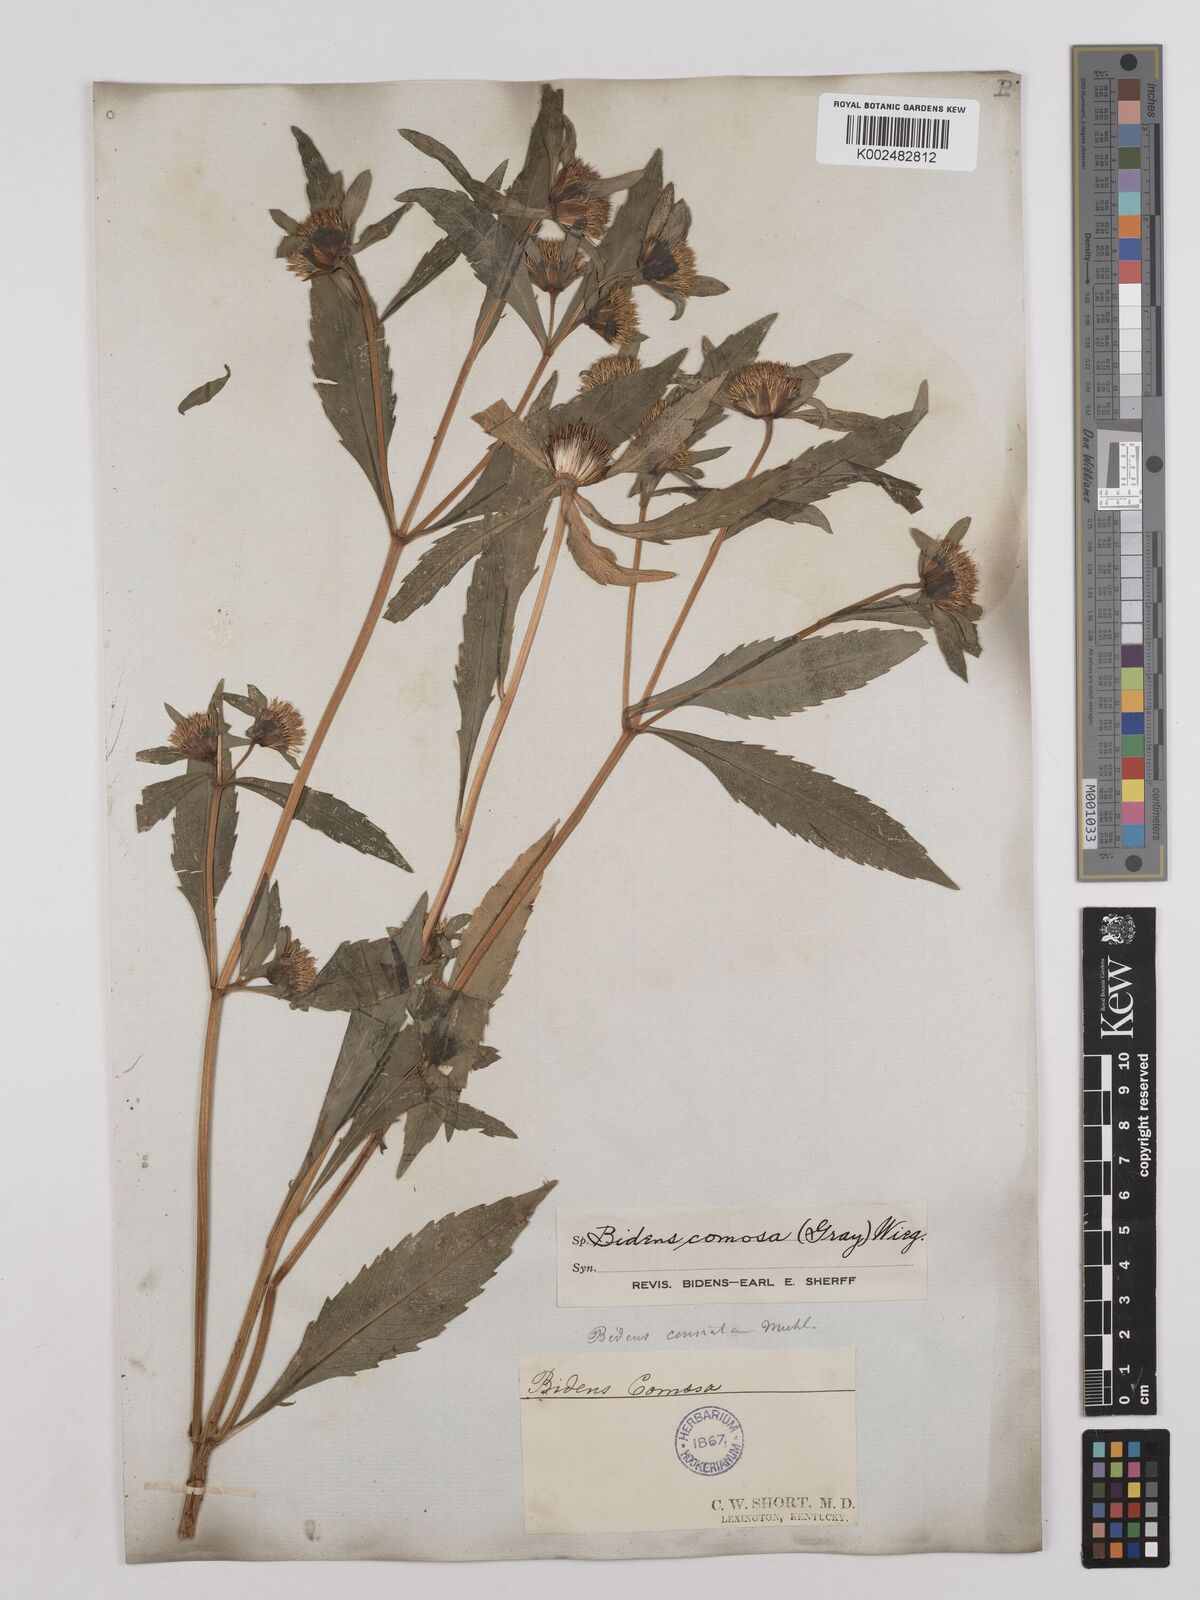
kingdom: Plantae
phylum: Tracheophyta
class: Magnoliopsida
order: Asterales
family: Asteraceae
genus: Bidens
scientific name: Bidens tripartita
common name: Trifid bur-marigold
